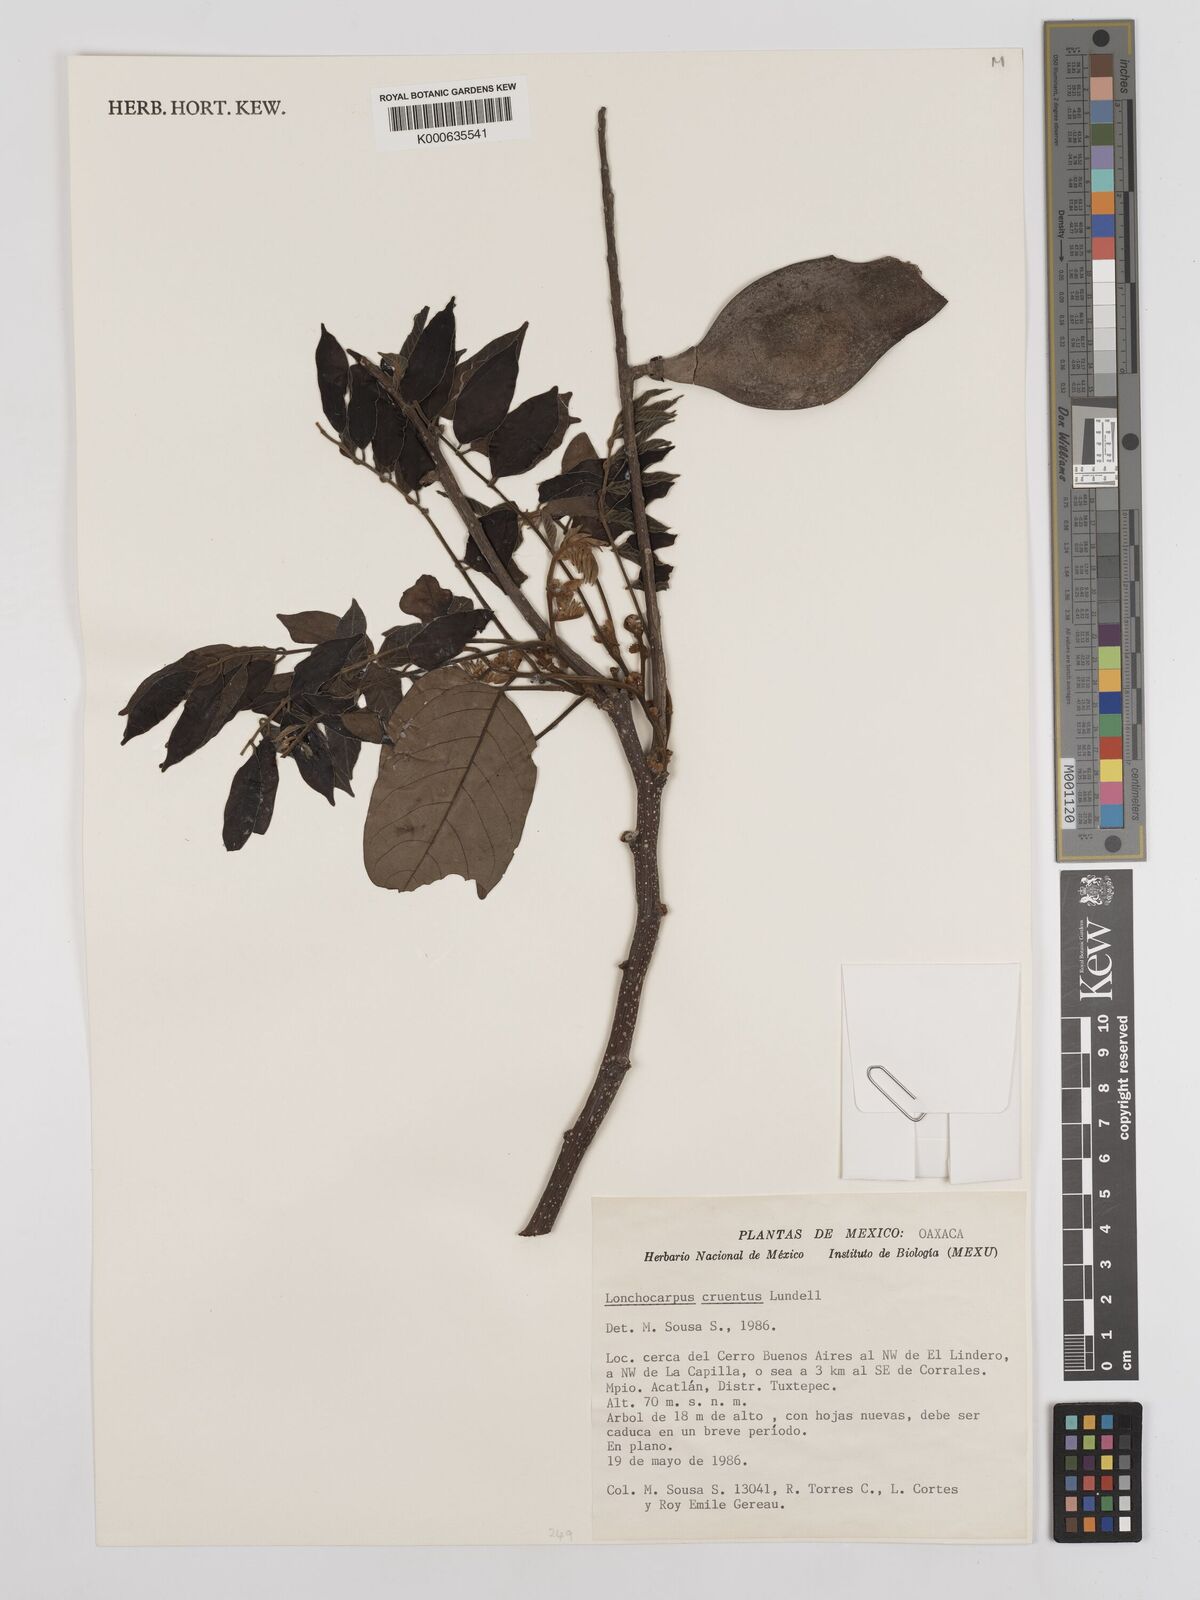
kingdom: Plantae
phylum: Tracheophyta
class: Magnoliopsida
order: Fabales
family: Fabaceae
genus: Lonchocarpus
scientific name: Lonchocarpus cruentus
